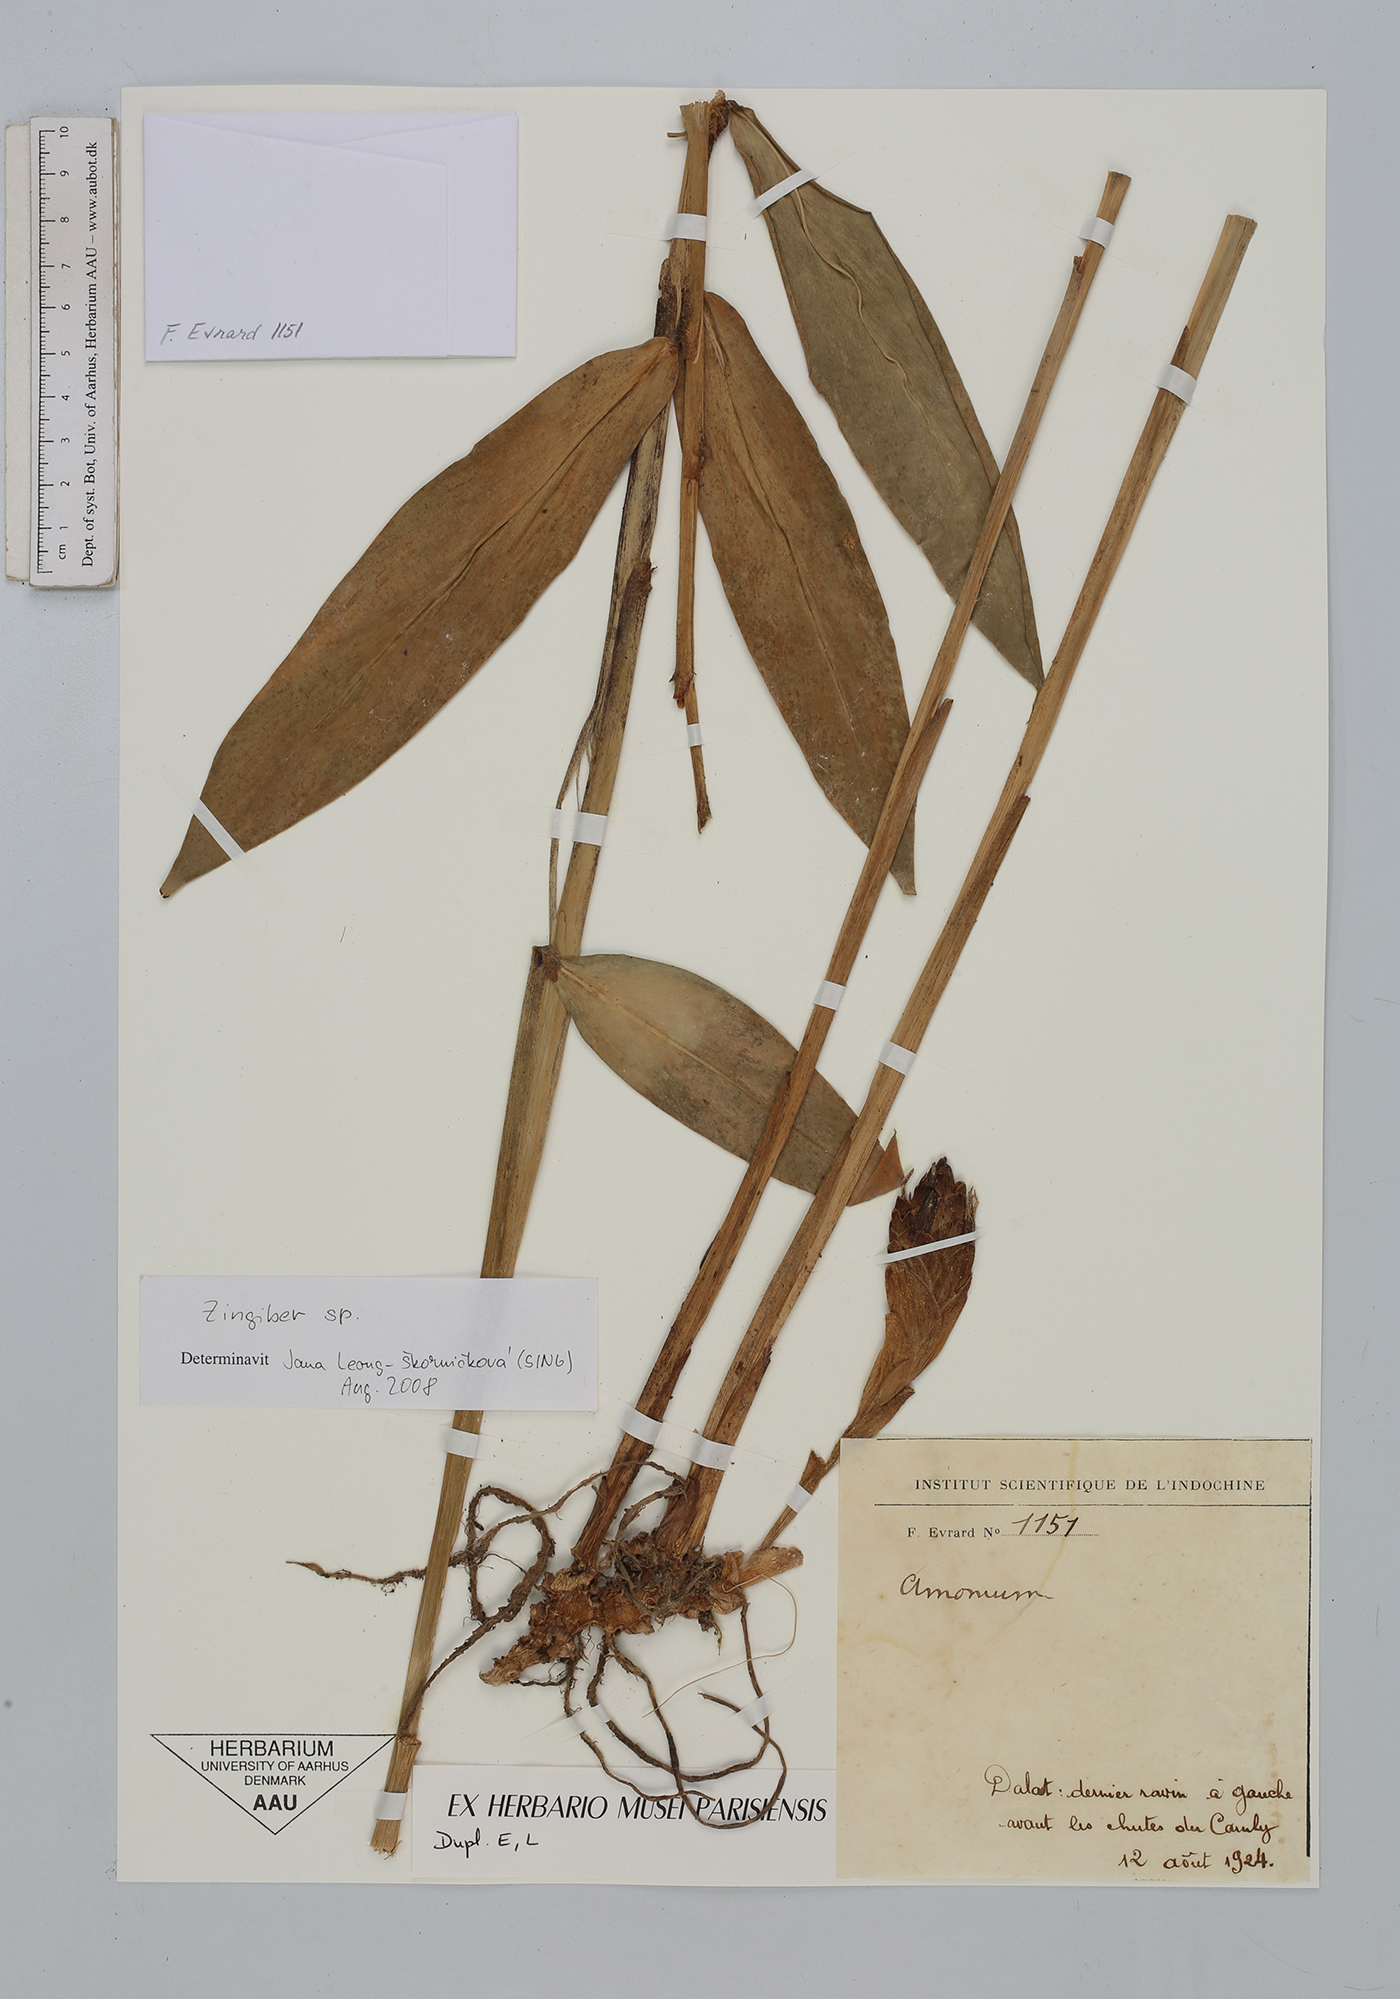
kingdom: Plantae
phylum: Tracheophyta
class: Liliopsida
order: Zingiberales
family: Zingiberaceae
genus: Zingiber
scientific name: Zingiber
